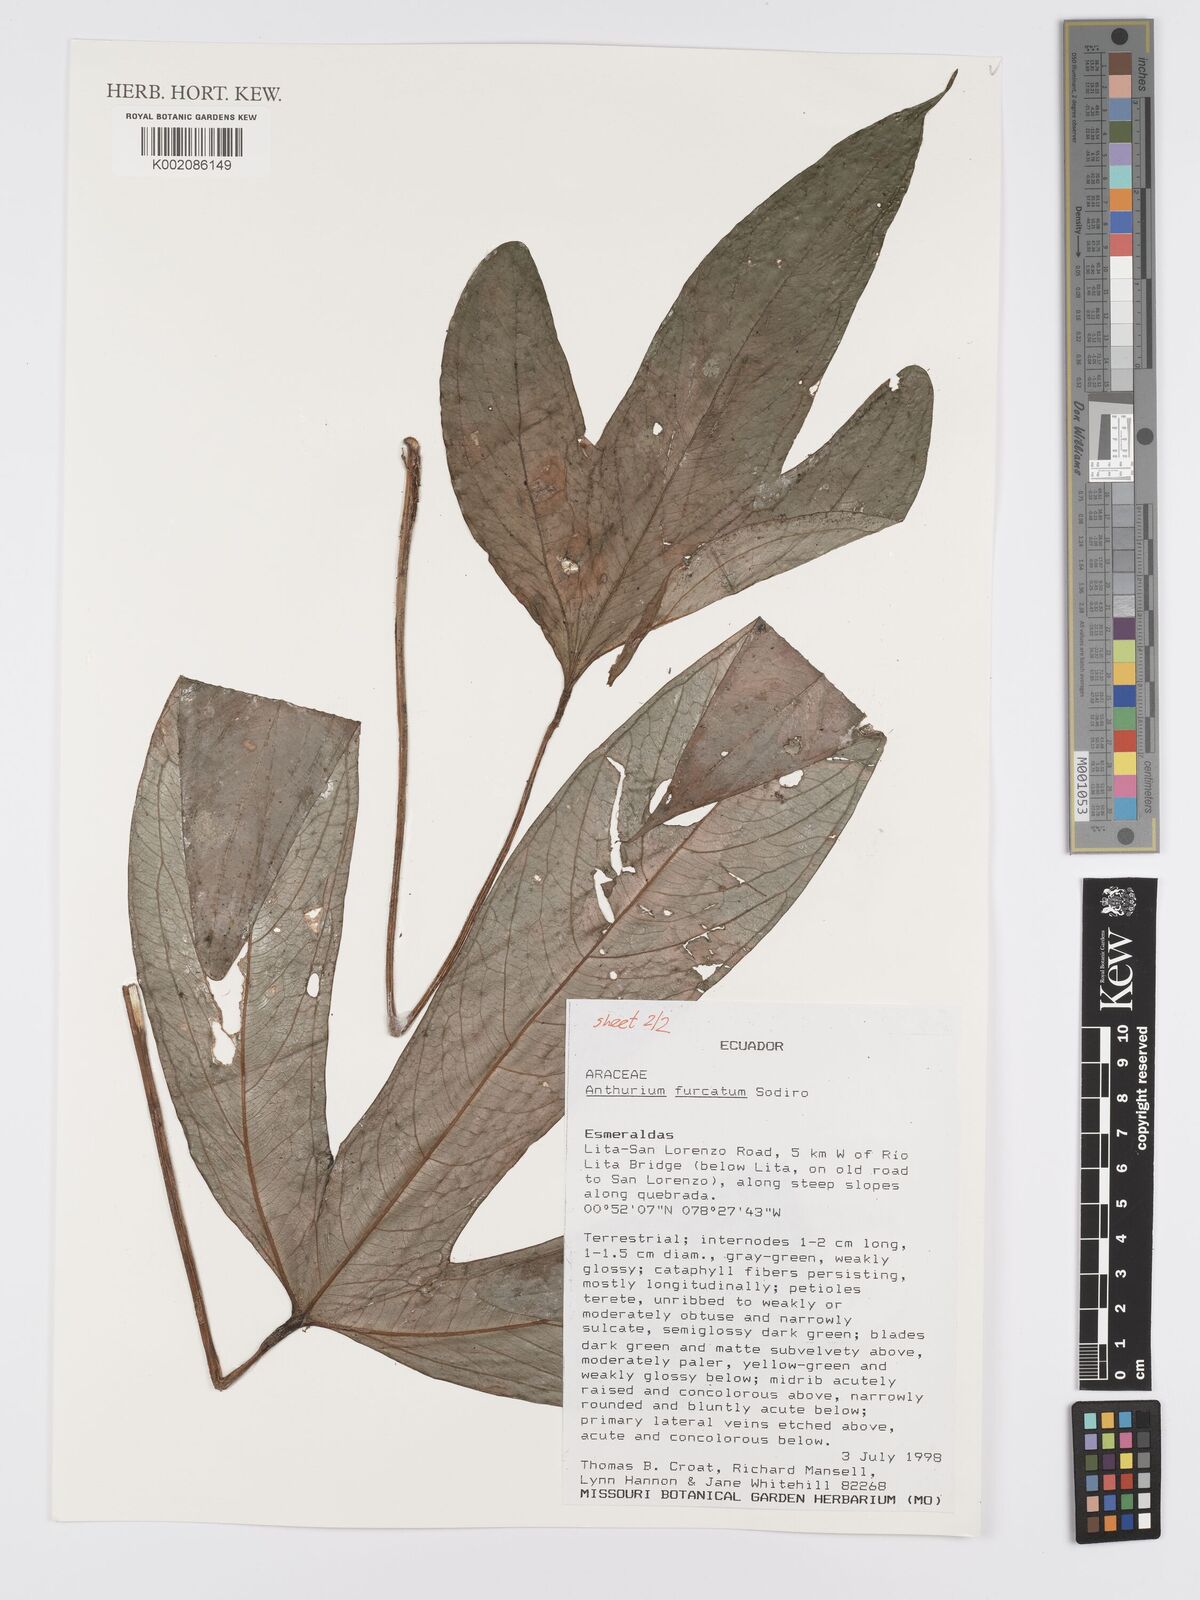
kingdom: Plantae
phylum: Tracheophyta
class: Liliopsida
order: Alismatales
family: Araceae
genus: Anthurium
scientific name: Anthurium furcatum
